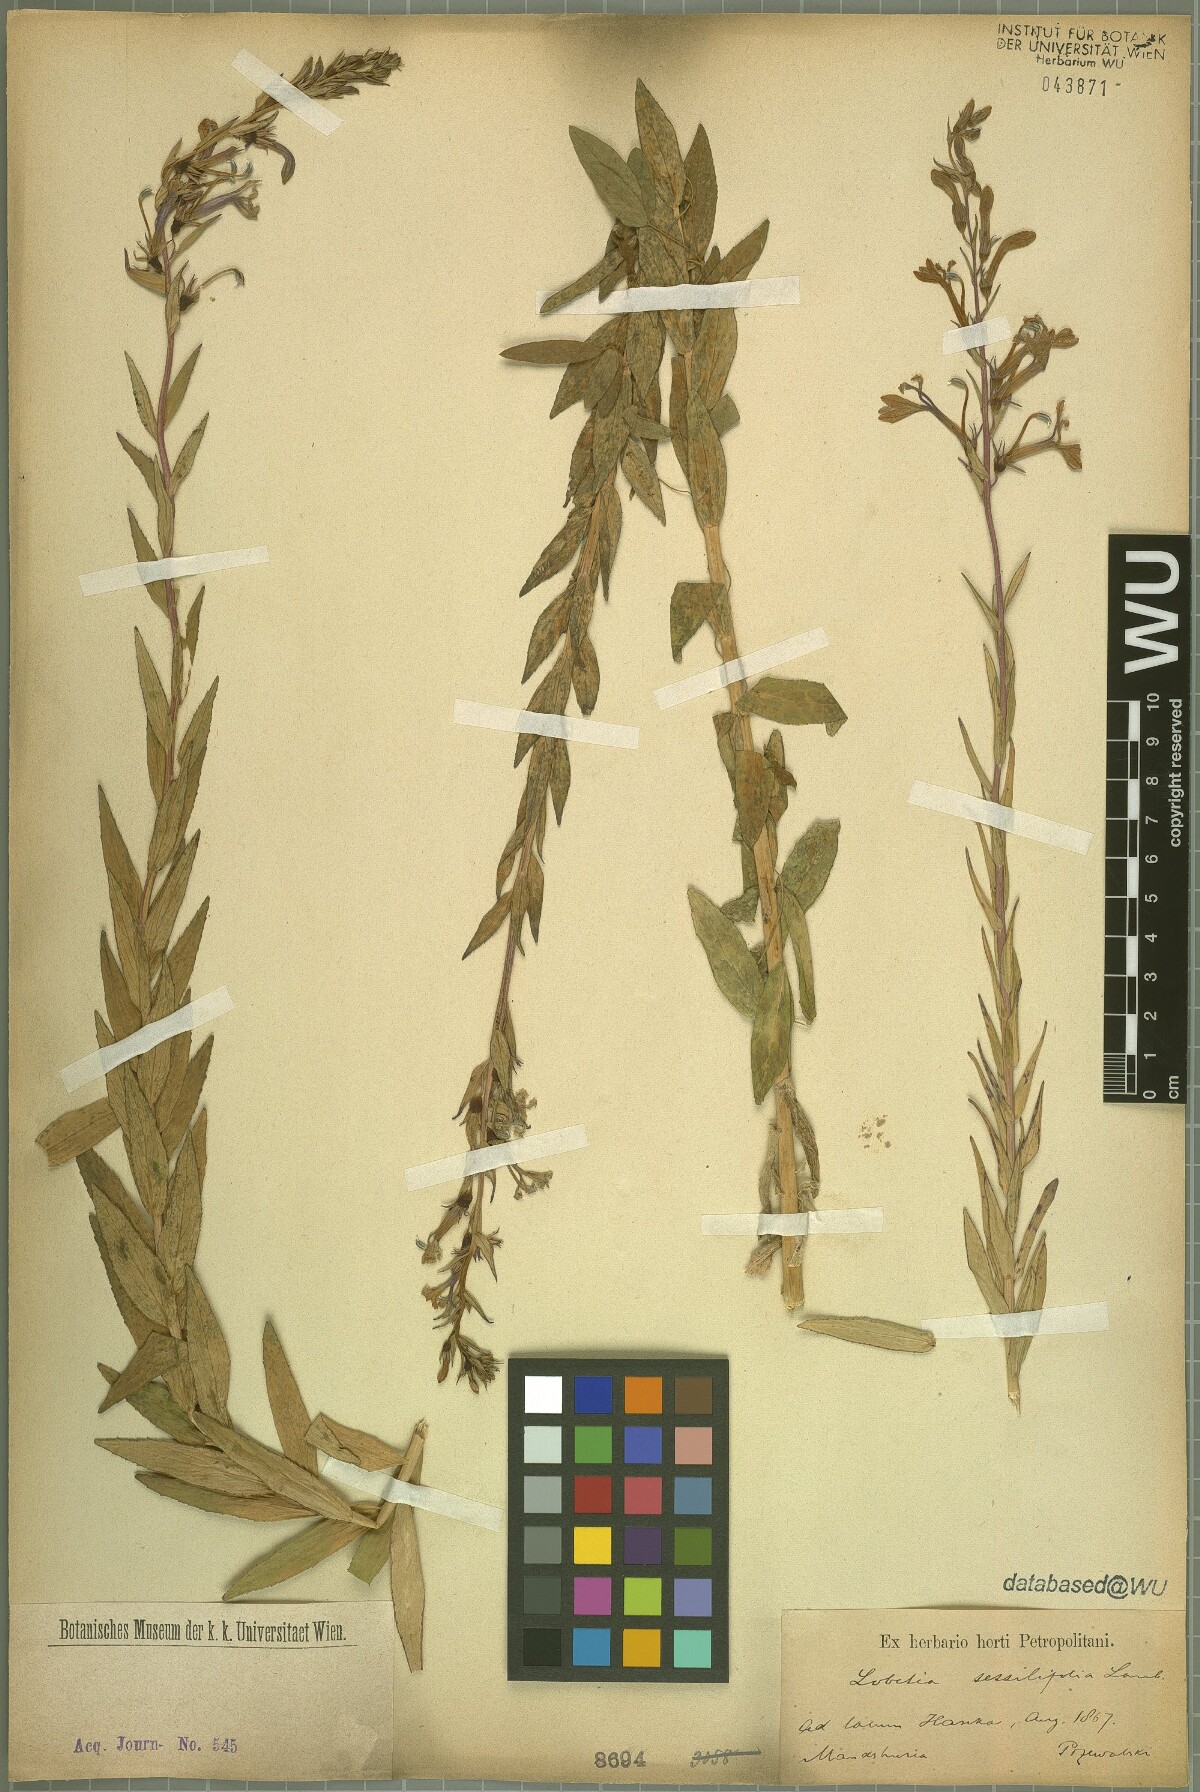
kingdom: Plantae
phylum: Tracheophyta
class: Magnoliopsida
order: Asterales
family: Campanulaceae
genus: Lobelia
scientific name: Lobelia sessilifolia
